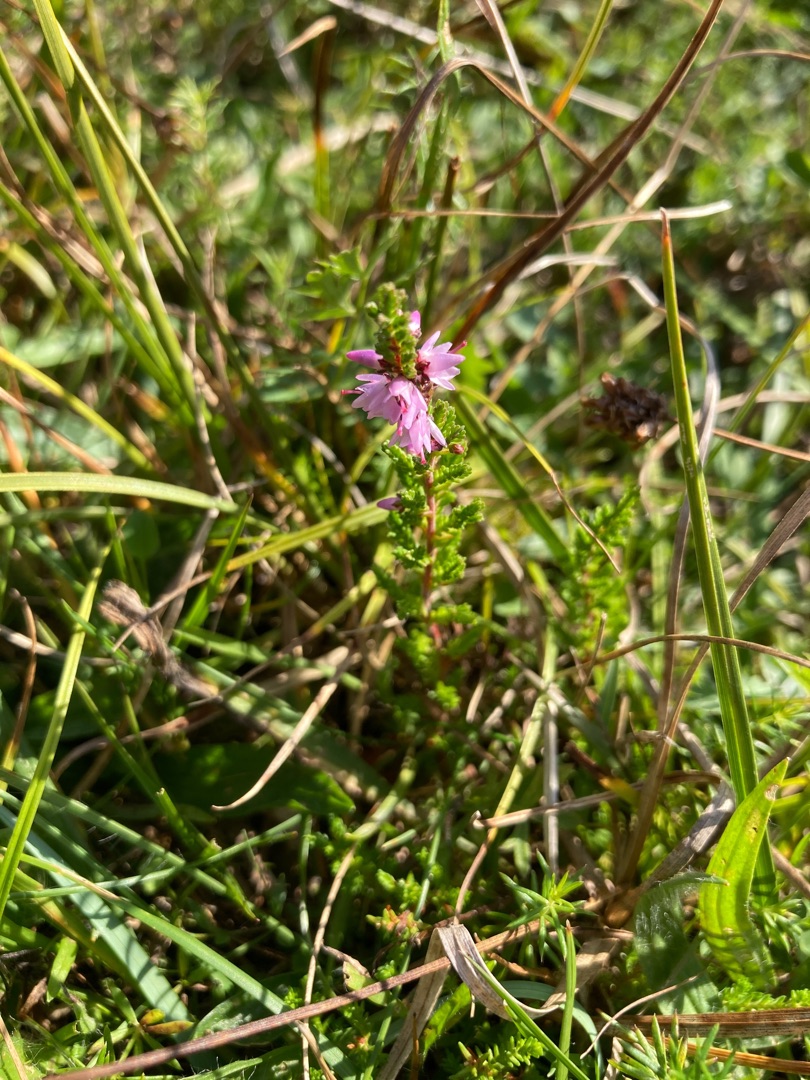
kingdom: Plantae
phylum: Tracheophyta
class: Magnoliopsida
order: Ericales
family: Ericaceae
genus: Calluna
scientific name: Calluna vulgaris
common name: Hedelyng
